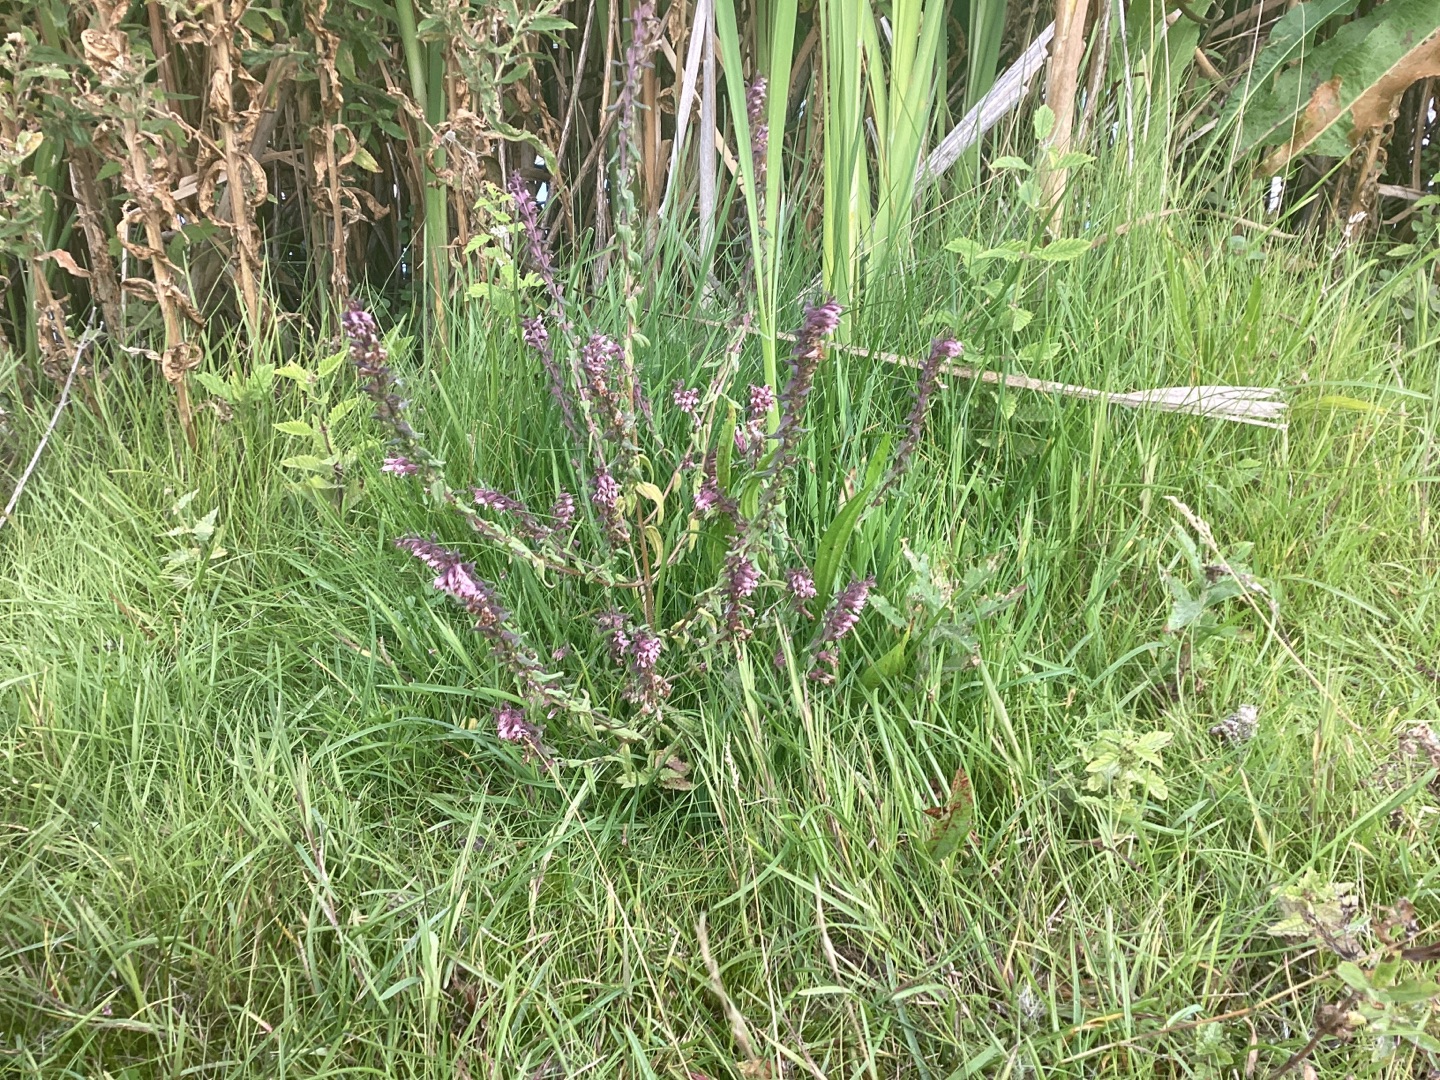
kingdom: Plantae
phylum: Tracheophyta
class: Magnoliopsida
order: Lamiales
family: Orobanchaceae
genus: Odontites
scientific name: Odontites vulgaris
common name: Høst-rødtop
